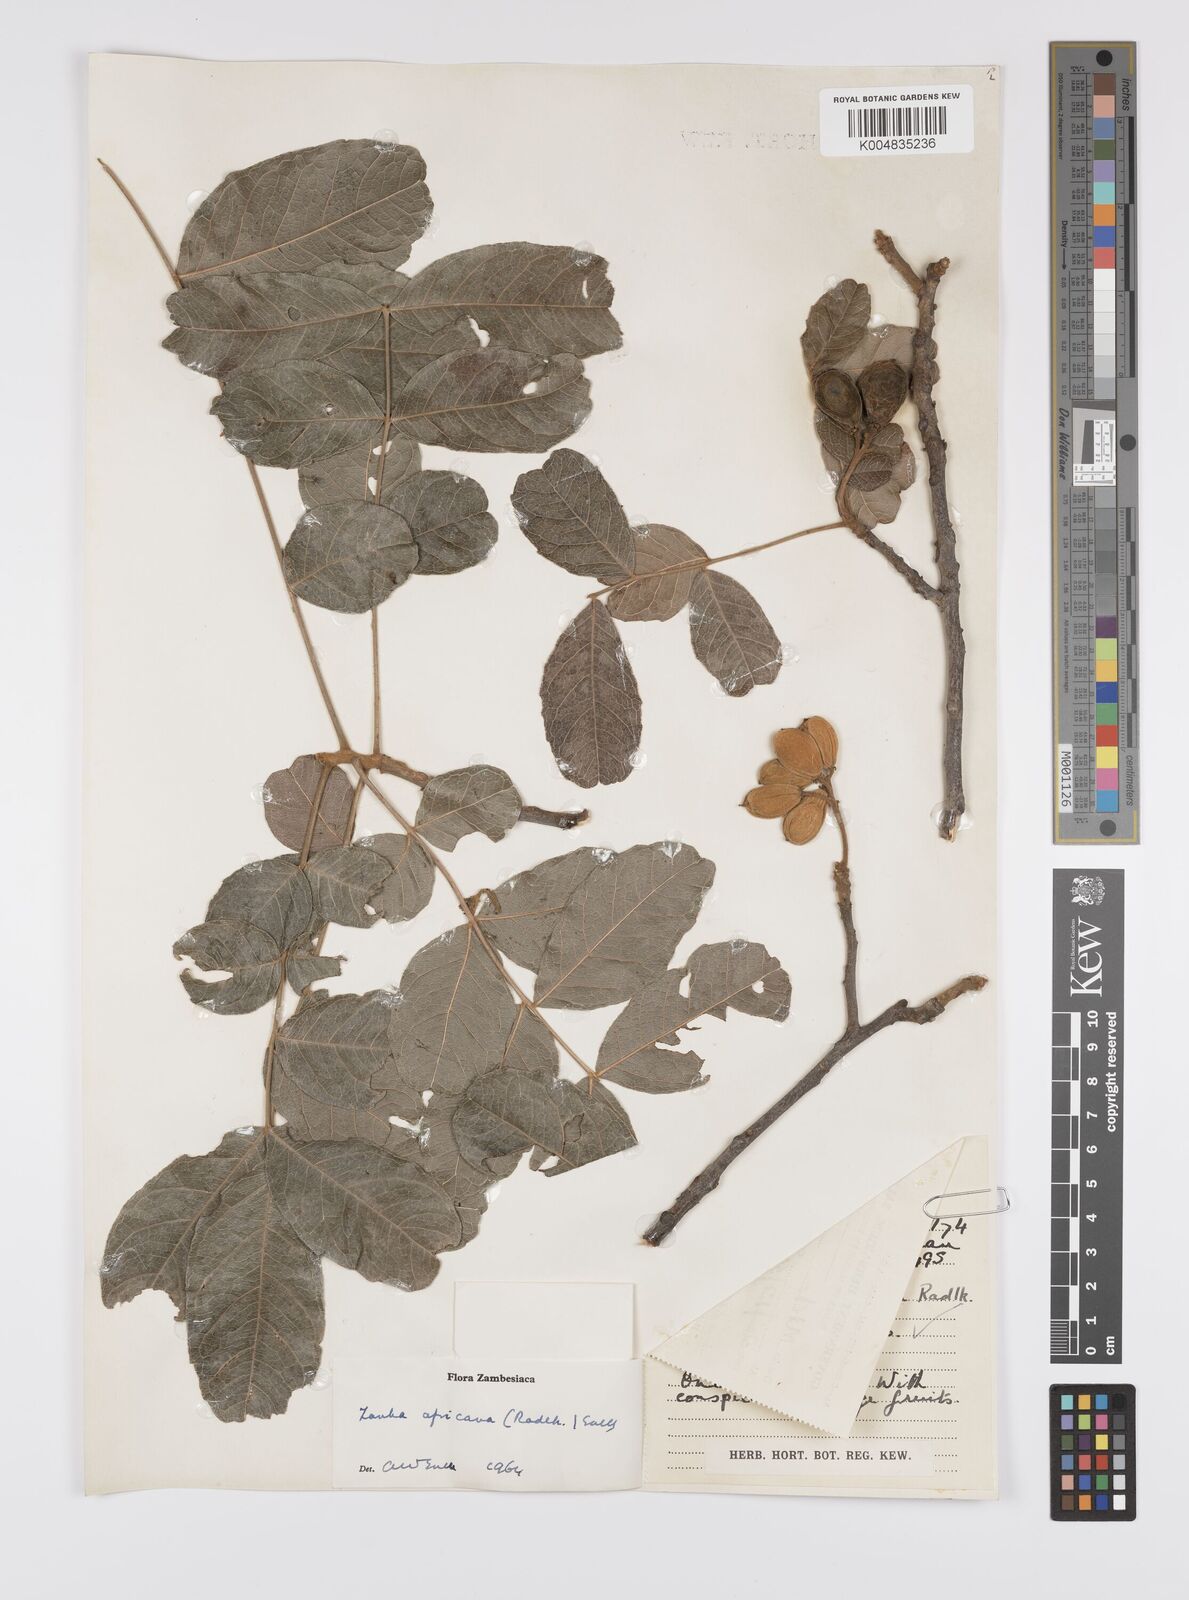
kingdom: Plantae
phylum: Tracheophyta
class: Magnoliopsida
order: Sapindales
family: Sapindaceae
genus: Zanha
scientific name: Zanha africana
